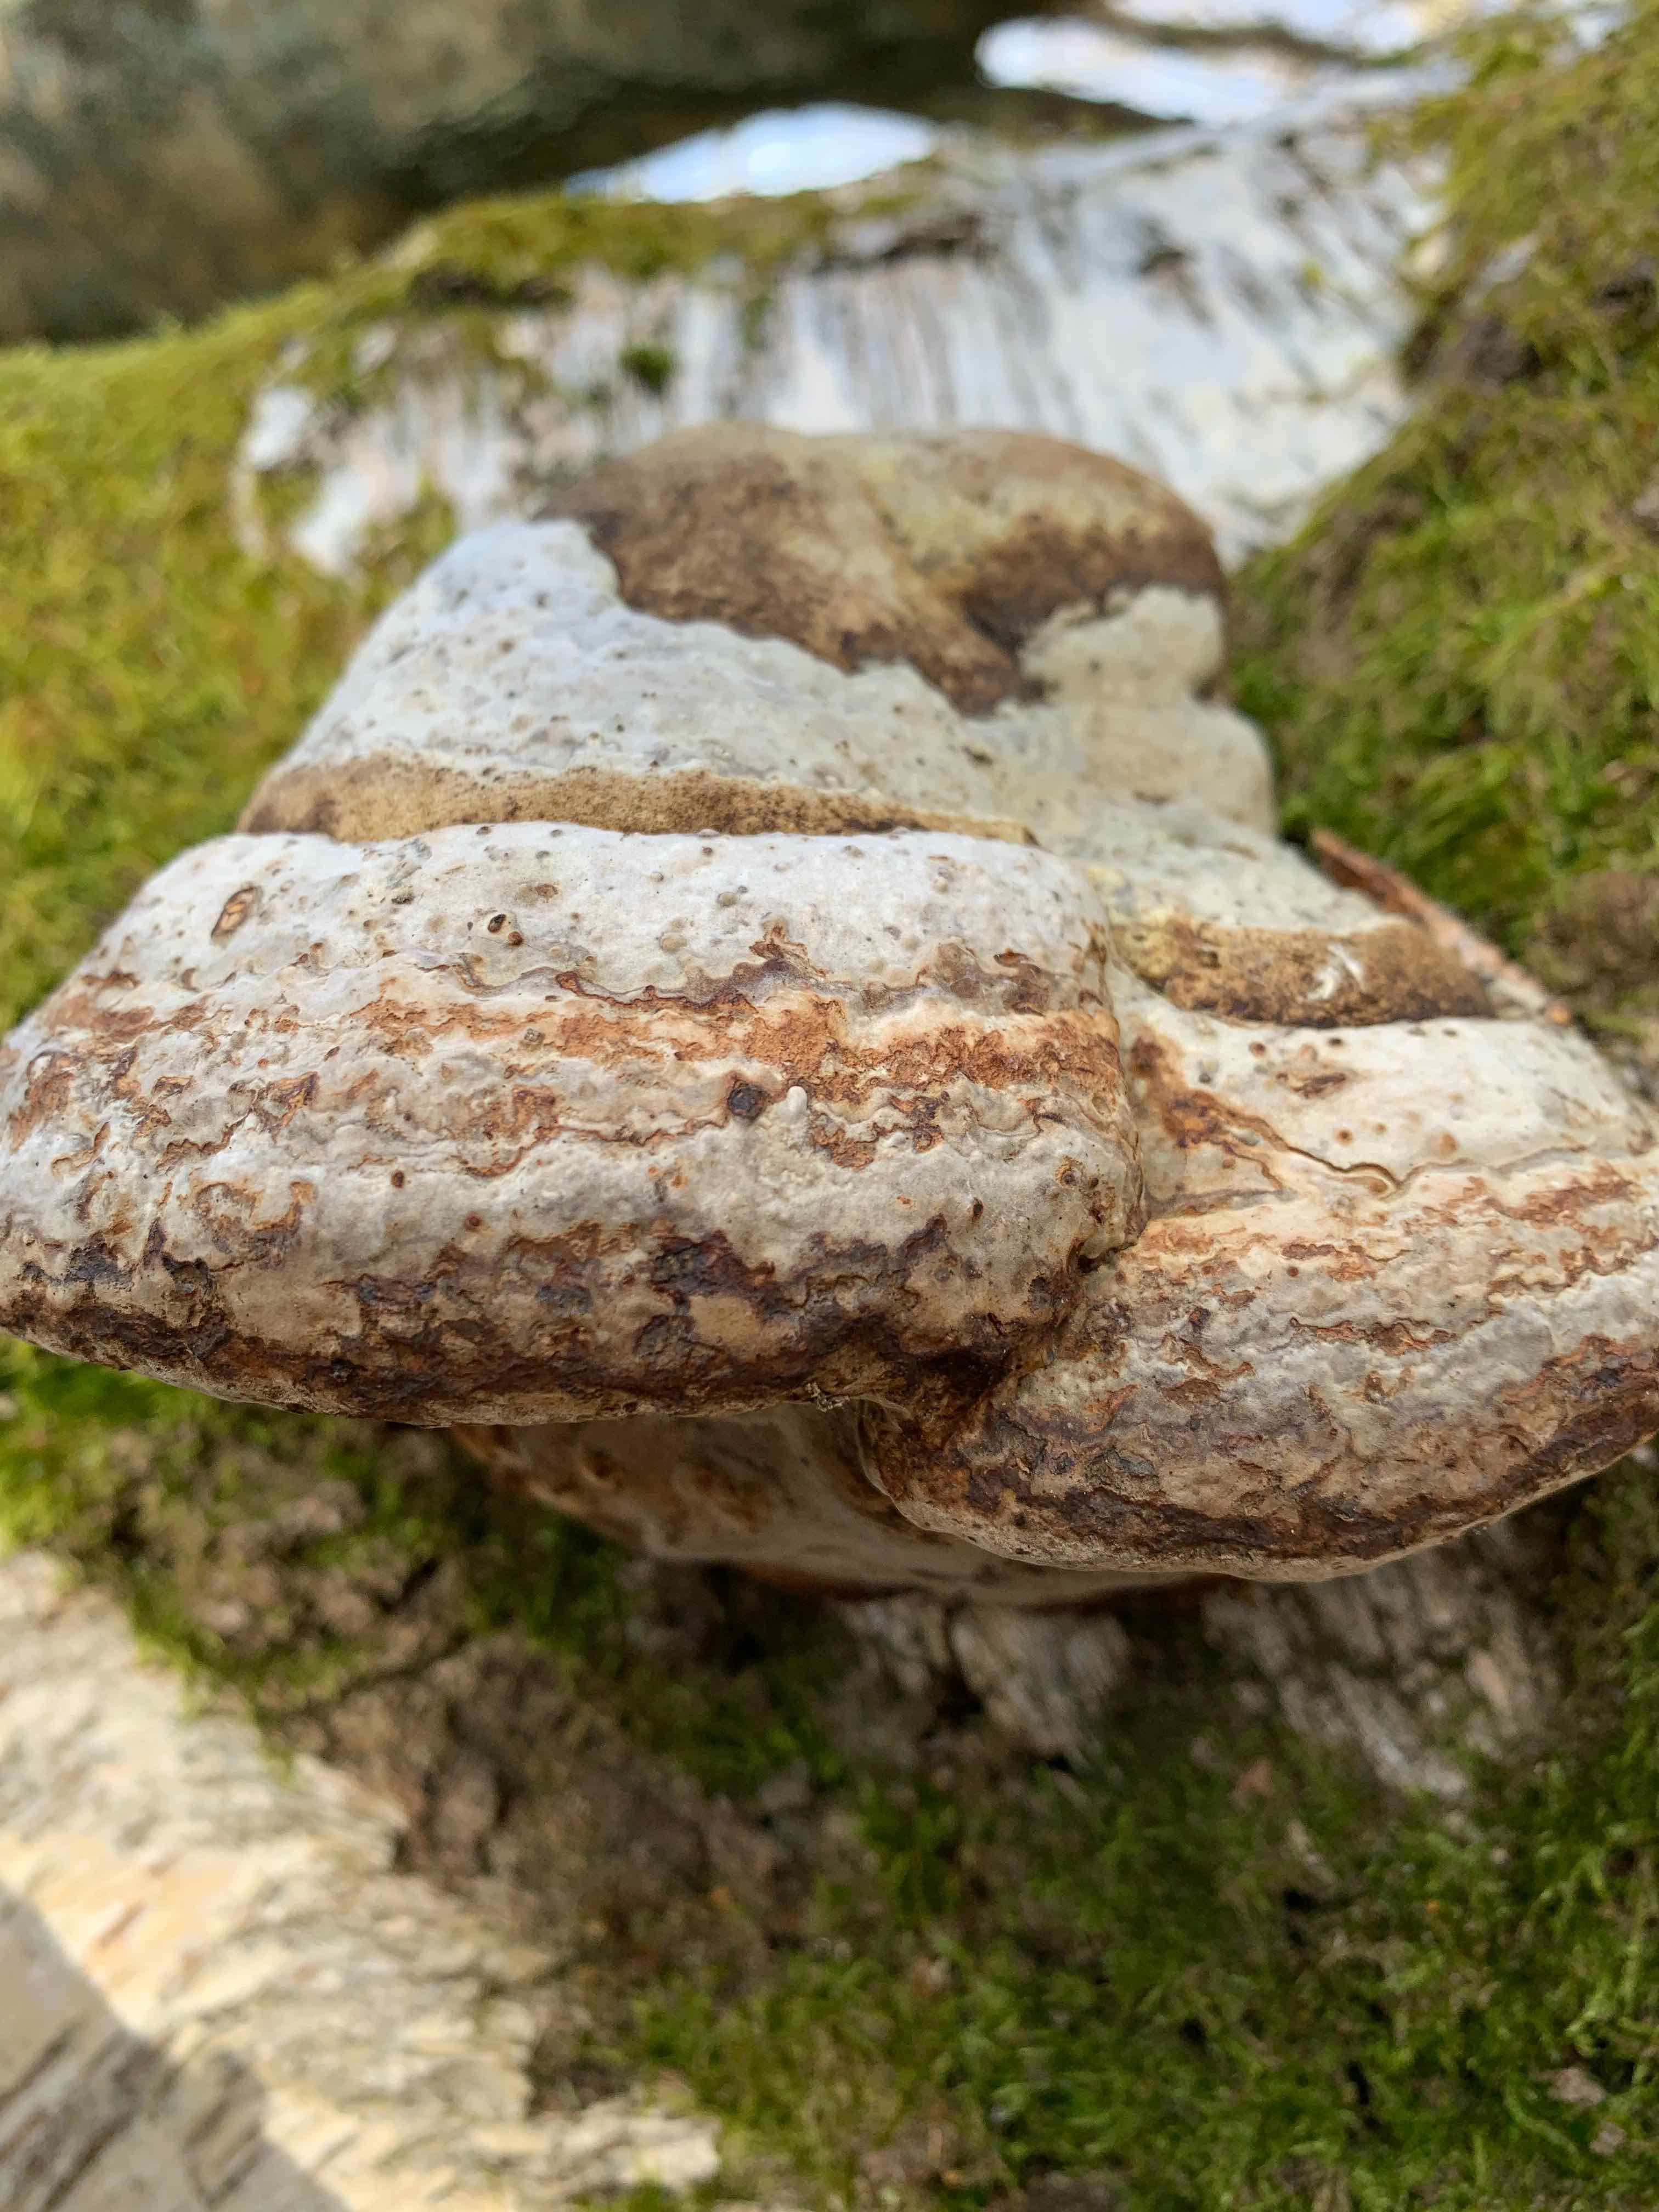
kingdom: Fungi
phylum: Basidiomycota
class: Agaricomycetes
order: Polyporales
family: Polyporaceae
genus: Fomes
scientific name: Fomes fomentarius
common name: tøndersvamp
